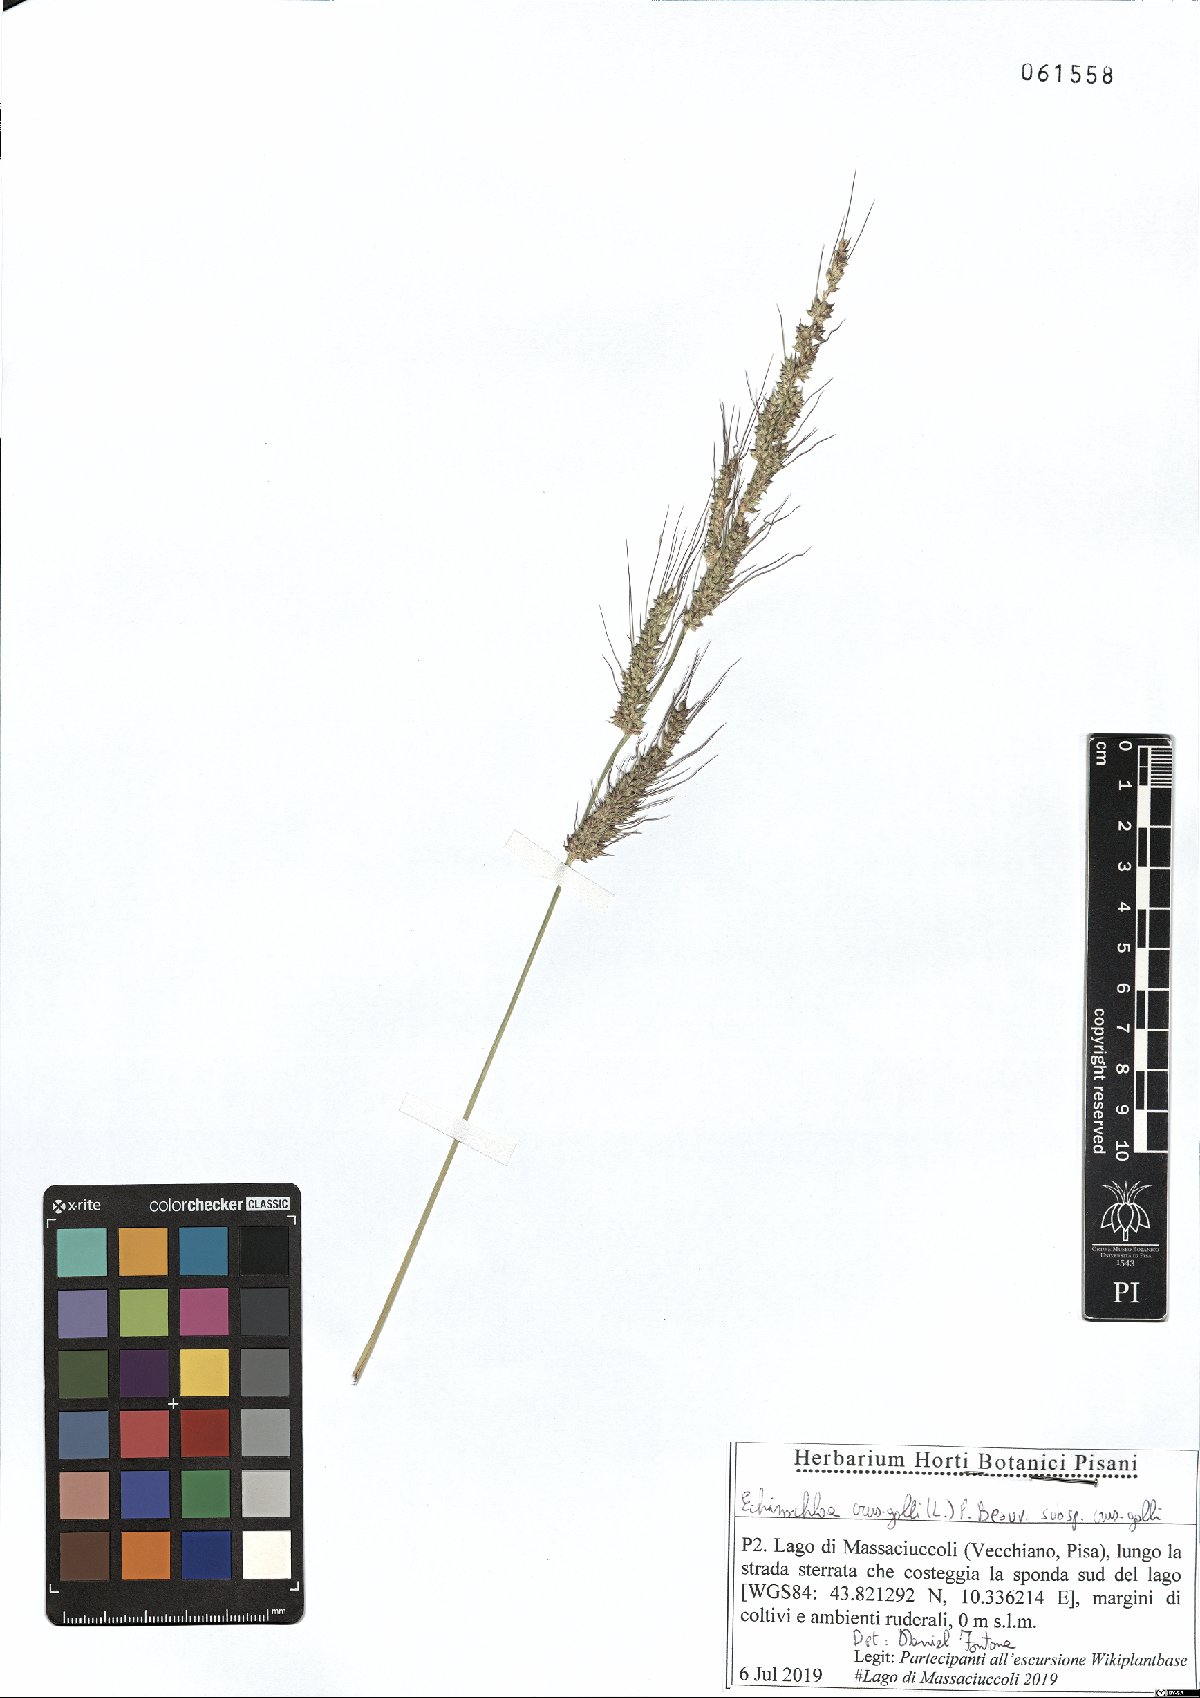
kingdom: Plantae
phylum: Tracheophyta
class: Liliopsida
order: Poales
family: Poaceae
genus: Echinochloa
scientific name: Echinochloa crus-galli
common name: Cockspur
